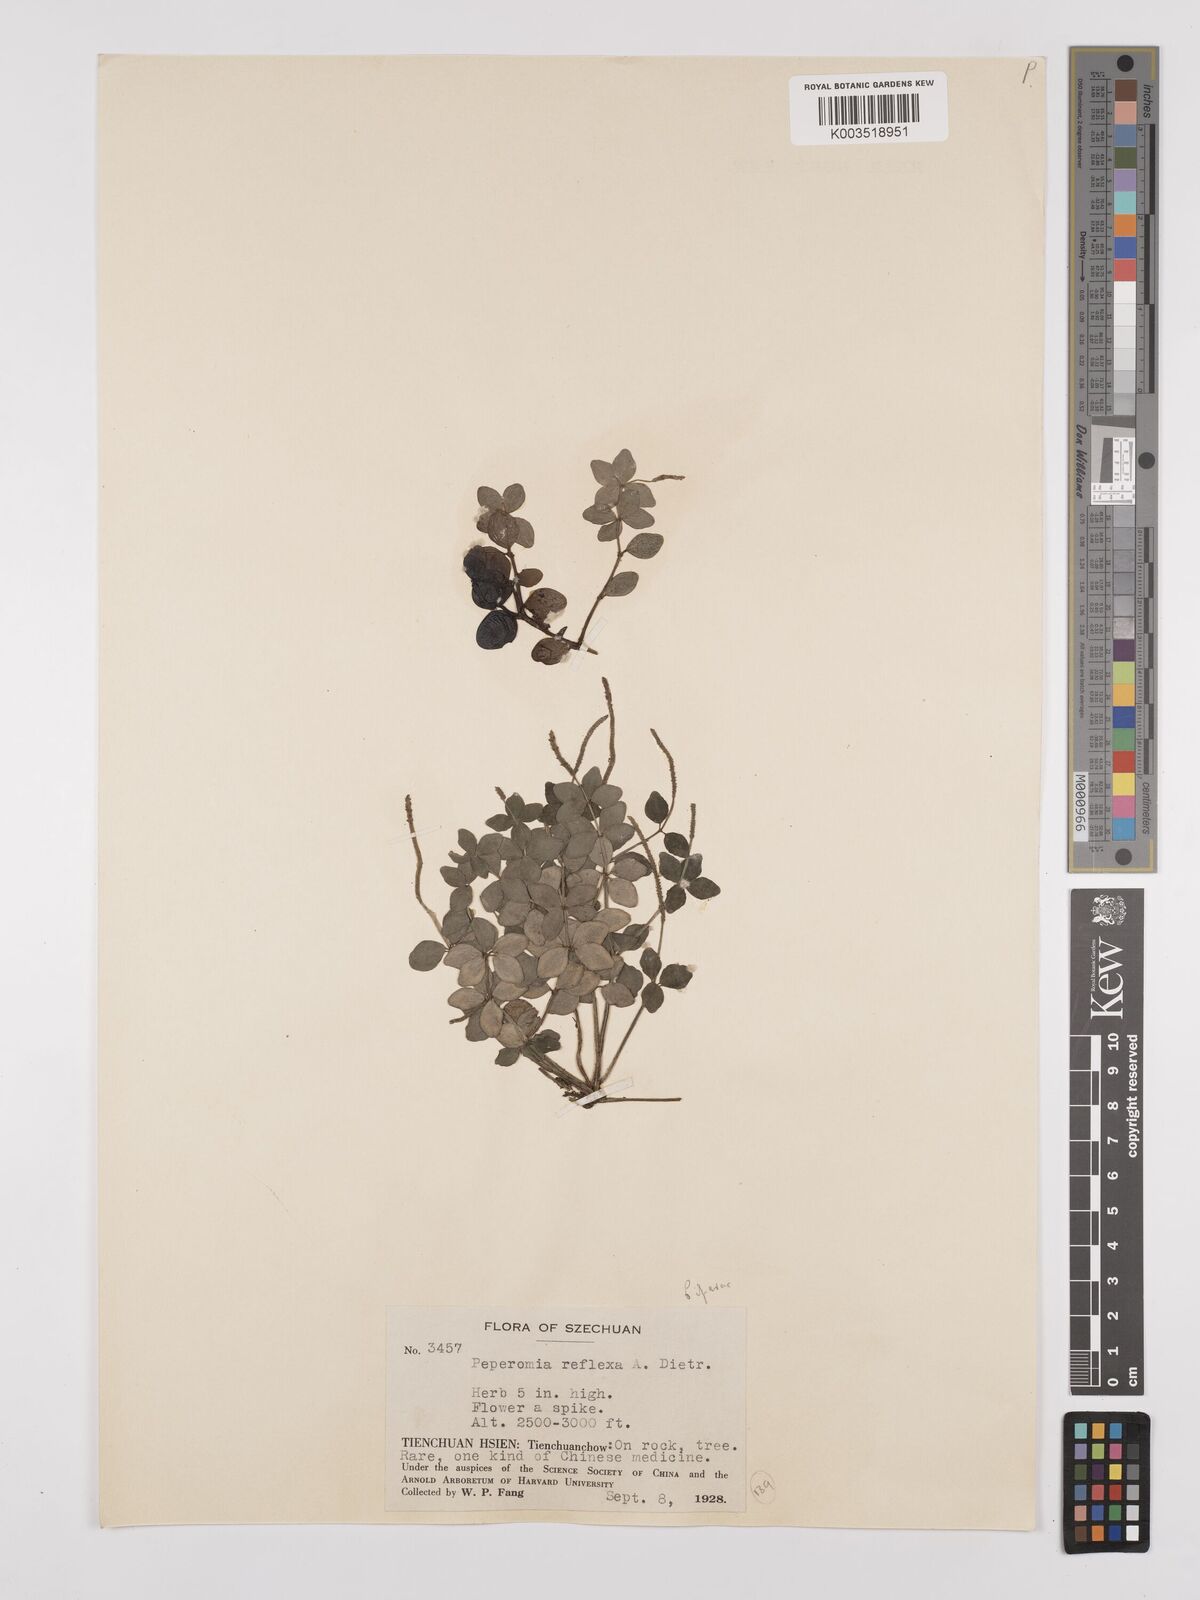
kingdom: Plantae
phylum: Tracheophyta
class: Magnoliopsida
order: Piperales
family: Piperaceae
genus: Peperomia
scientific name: Peperomia tetraphylla
